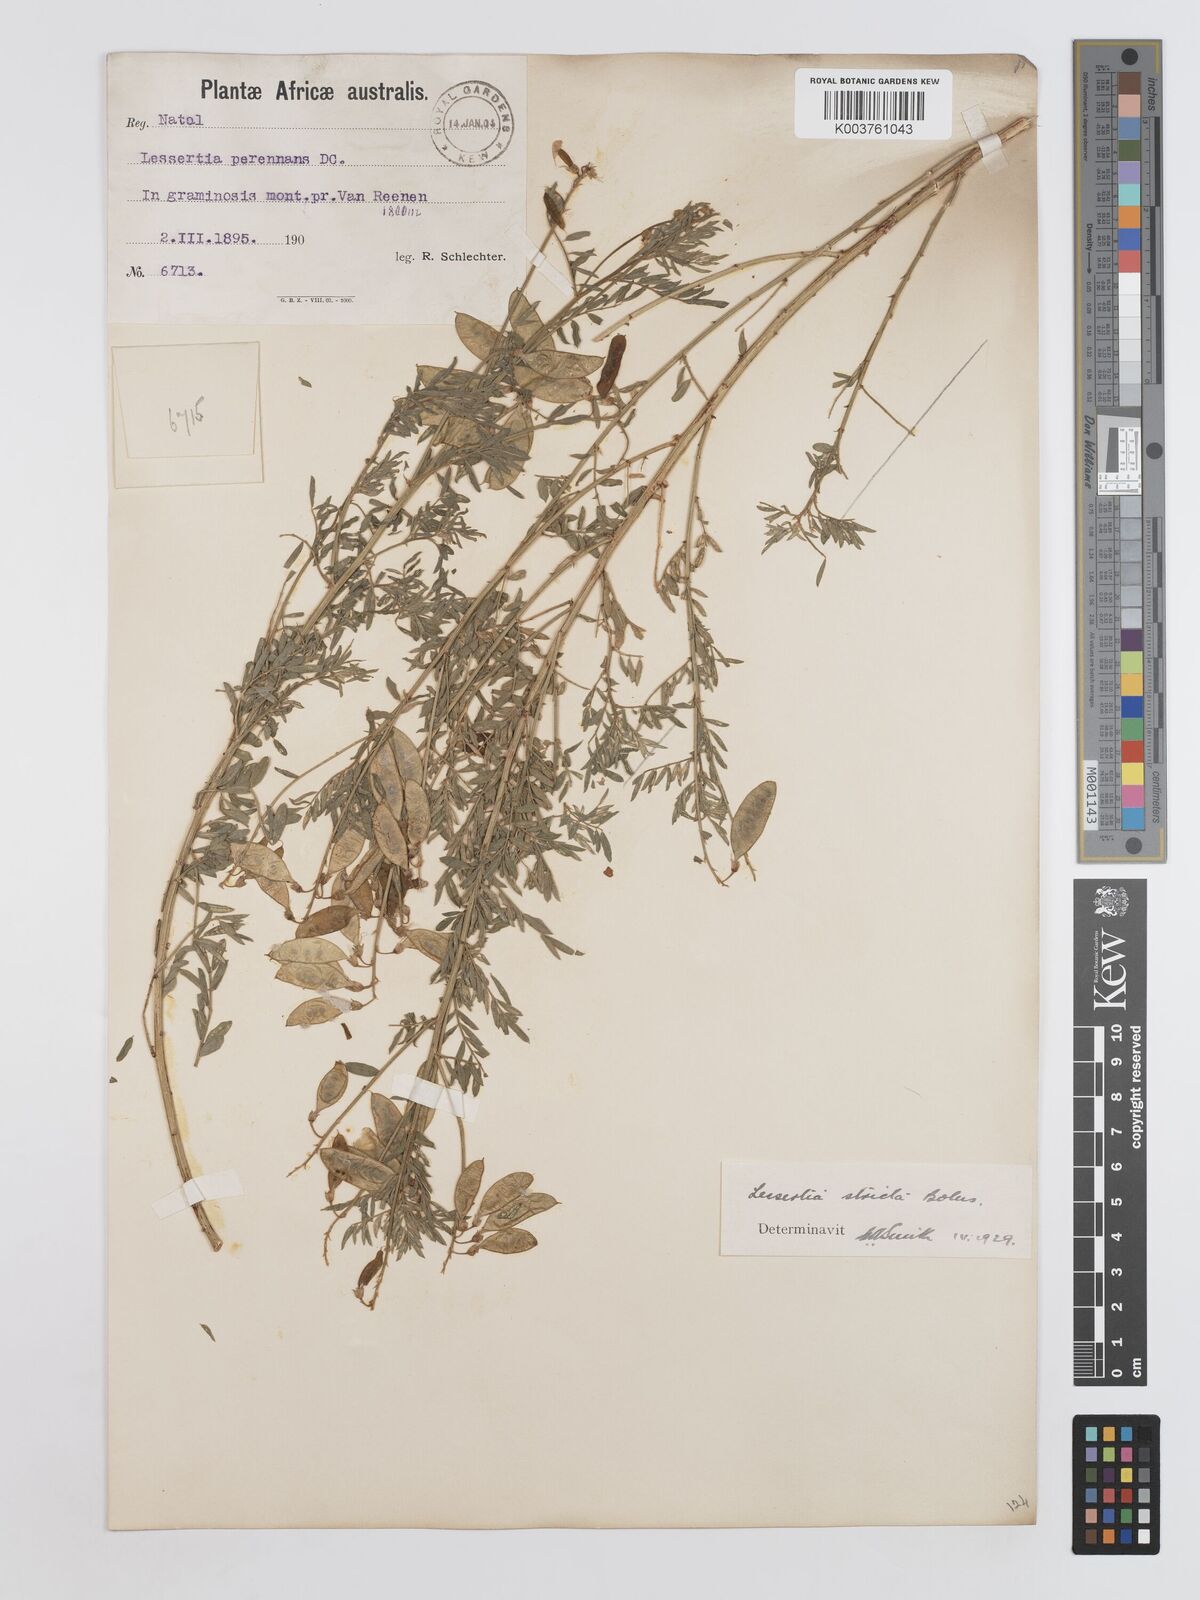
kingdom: Plantae
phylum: Tracheophyta
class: Magnoliopsida
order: Fabales
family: Fabaceae
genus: Lessertia
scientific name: Lessertia stricta
